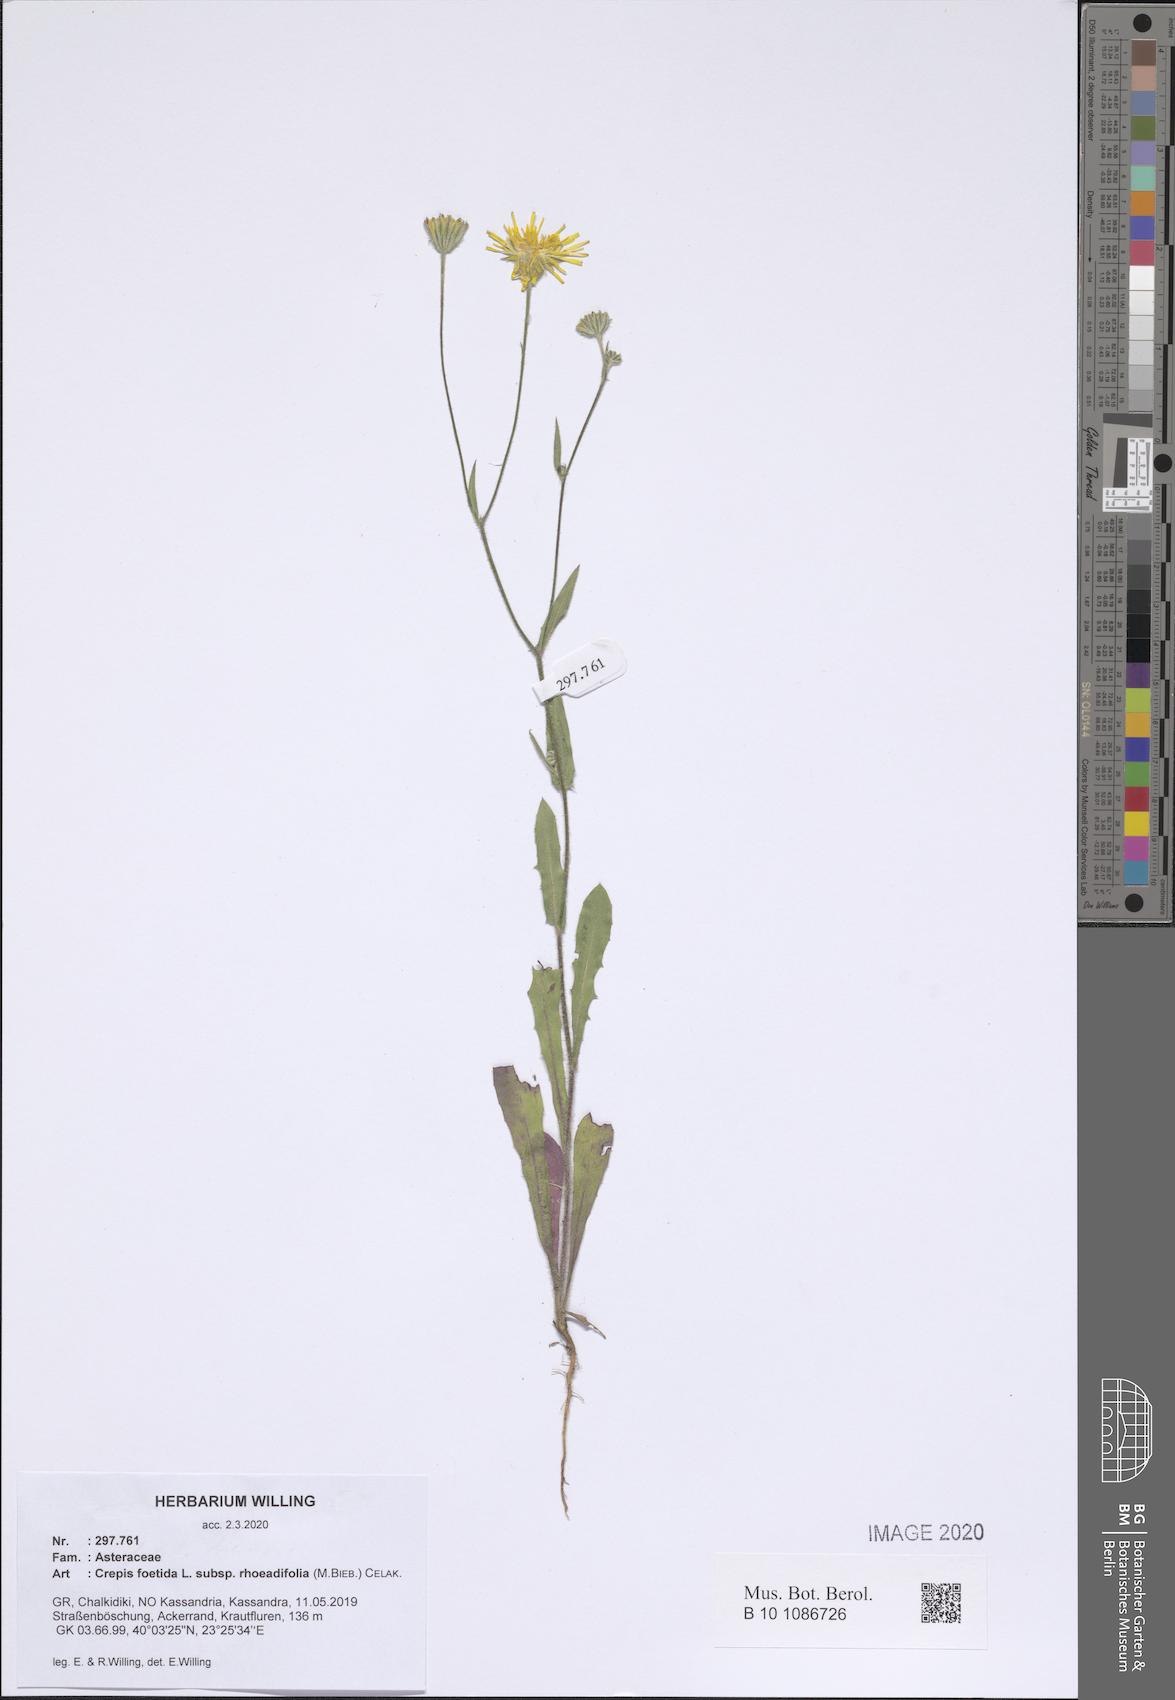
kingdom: Plantae
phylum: Tracheophyta
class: Magnoliopsida
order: Asterales
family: Asteraceae
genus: Crepis
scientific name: Crepis foetida
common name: Stinking hawk's-beard
